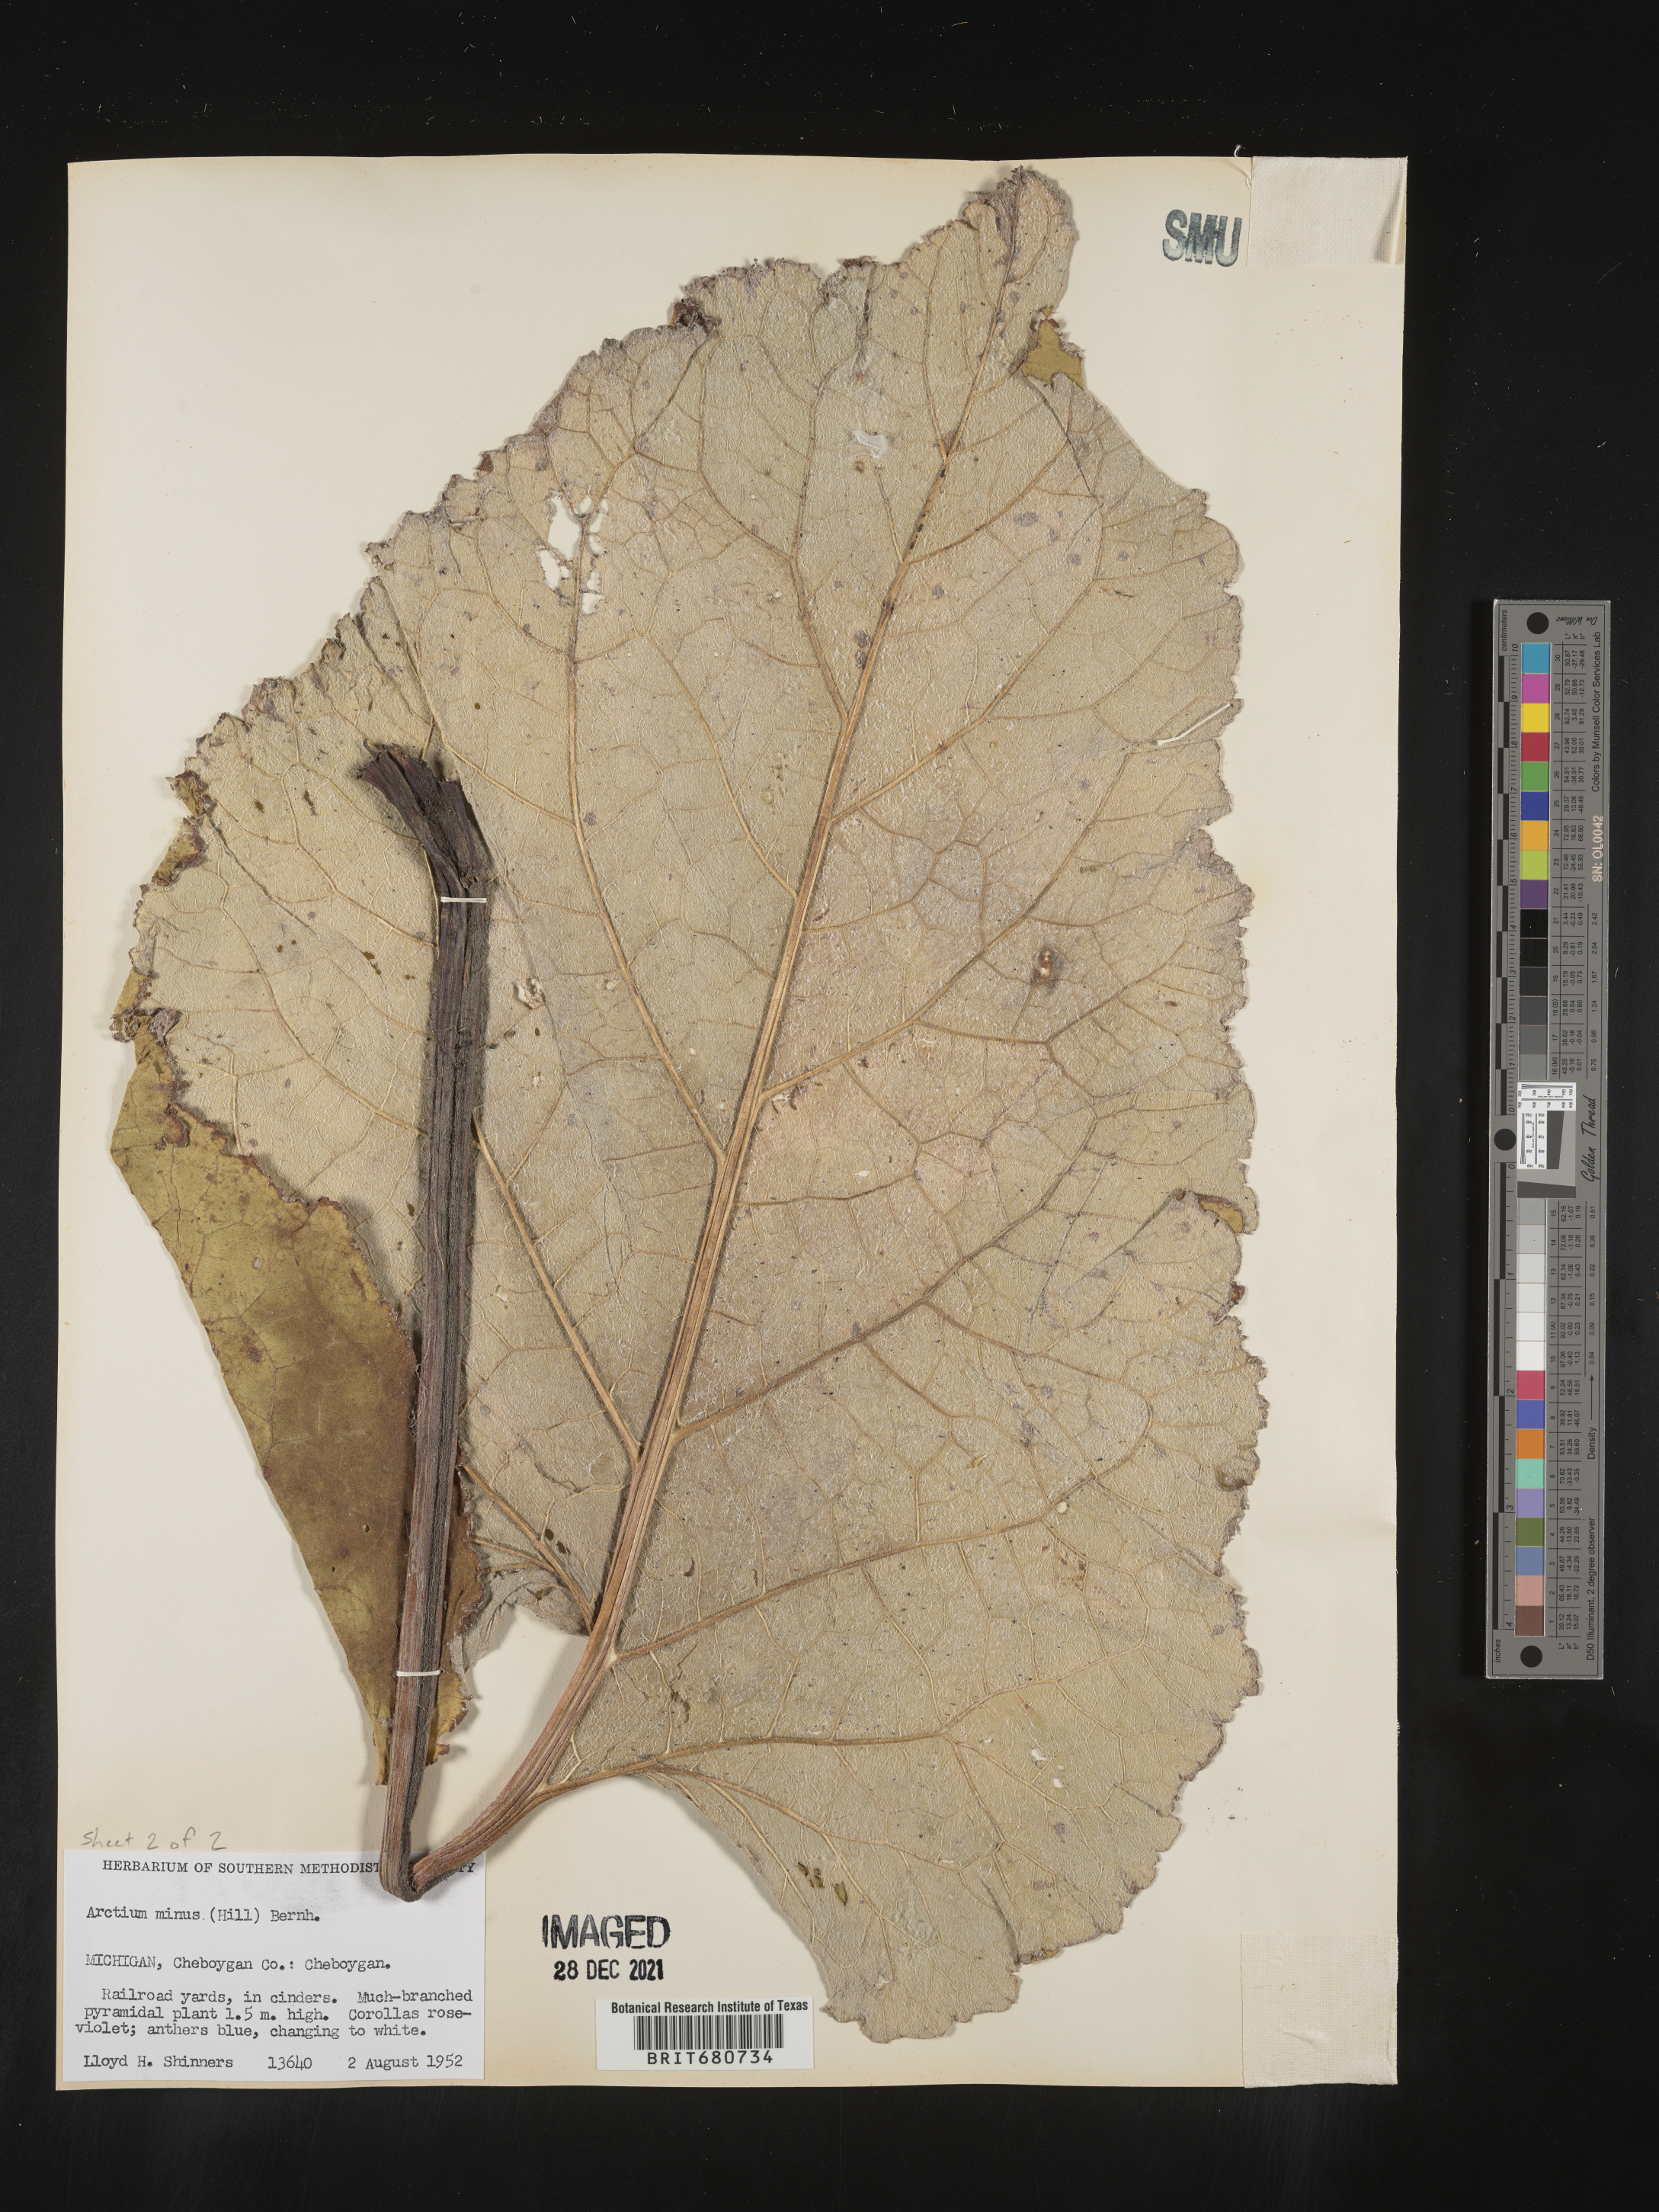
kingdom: Plantae
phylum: Tracheophyta
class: Magnoliopsida
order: Asterales
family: Asteraceae
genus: Arctium
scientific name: Arctium minus
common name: Lesser burdock
